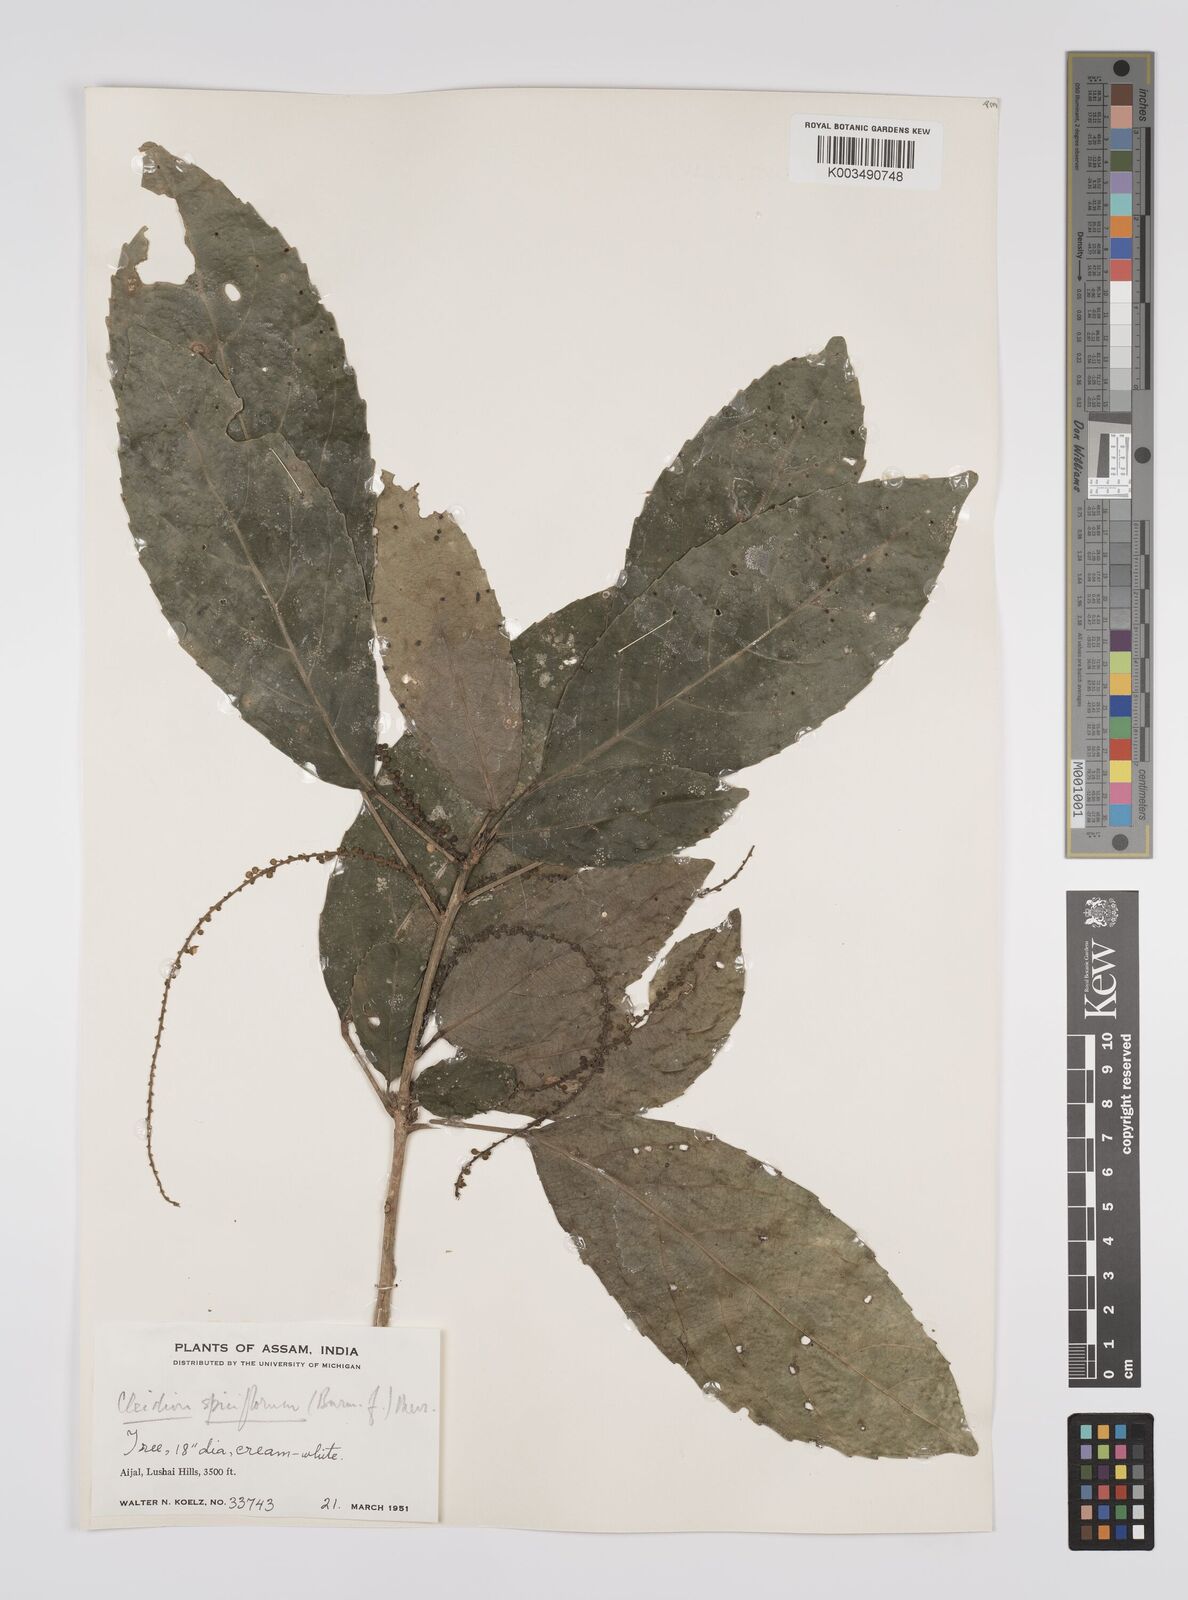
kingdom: Plantae
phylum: Tracheophyta
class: Magnoliopsida
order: Malpighiales
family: Euphorbiaceae
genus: Acalypha
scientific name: Acalypha spiciflora
